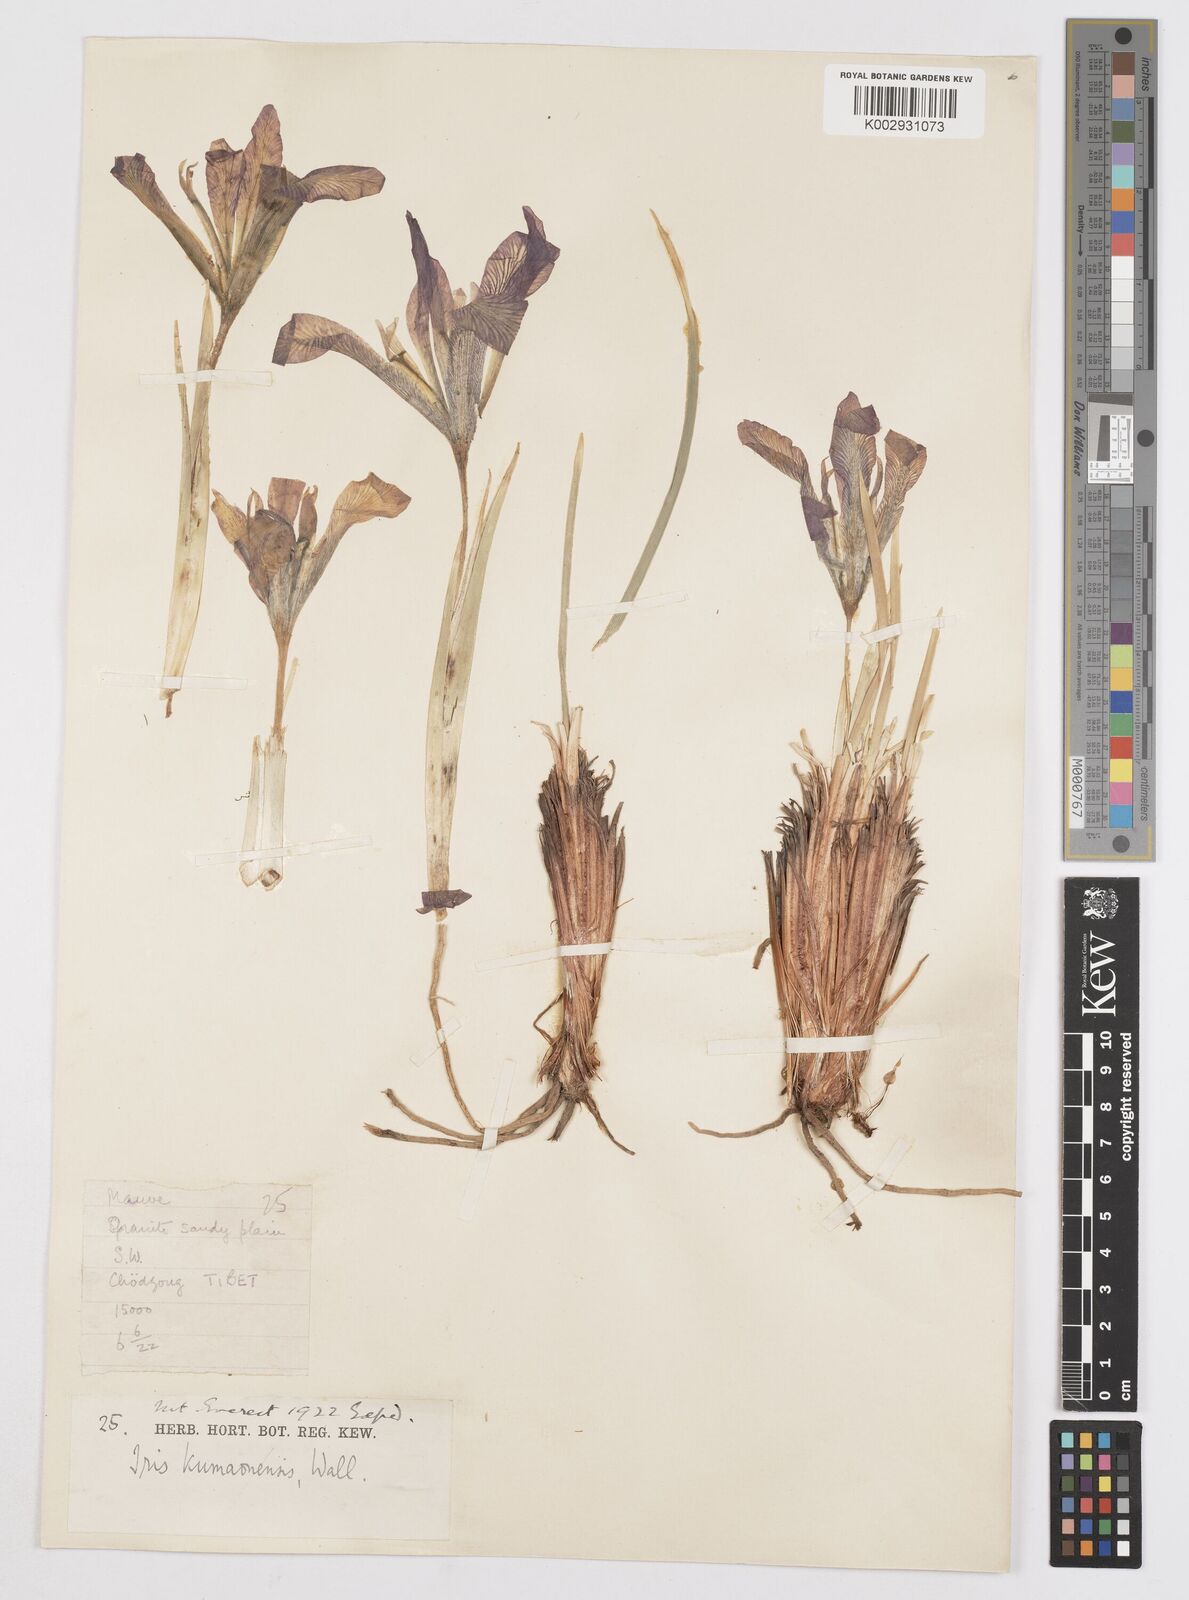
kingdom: Plantae
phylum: Tracheophyta
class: Liliopsida
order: Asparagales
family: Iridaceae
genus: Iris
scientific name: Iris tenuifolia
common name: Slender-leaf iris
